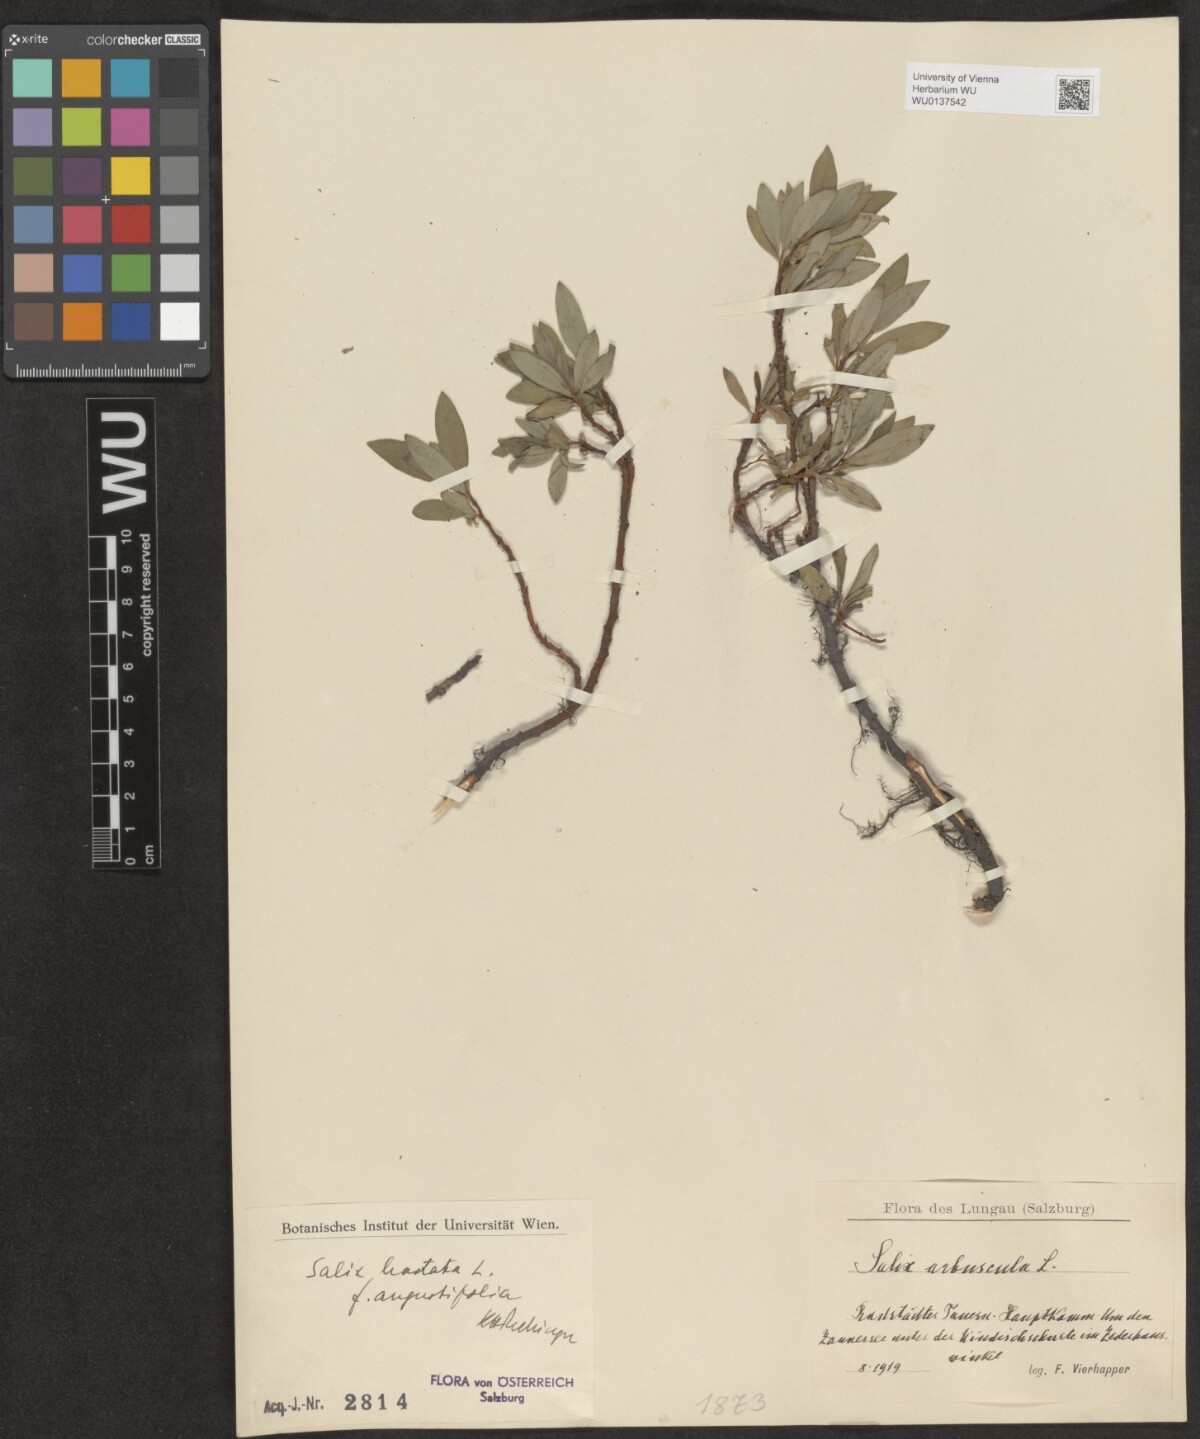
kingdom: Plantae
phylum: Tracheophyta
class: Magnoliopsida
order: Malpighiales
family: Salicaceae
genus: Salix
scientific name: Salix hastata
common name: Halberd willow
